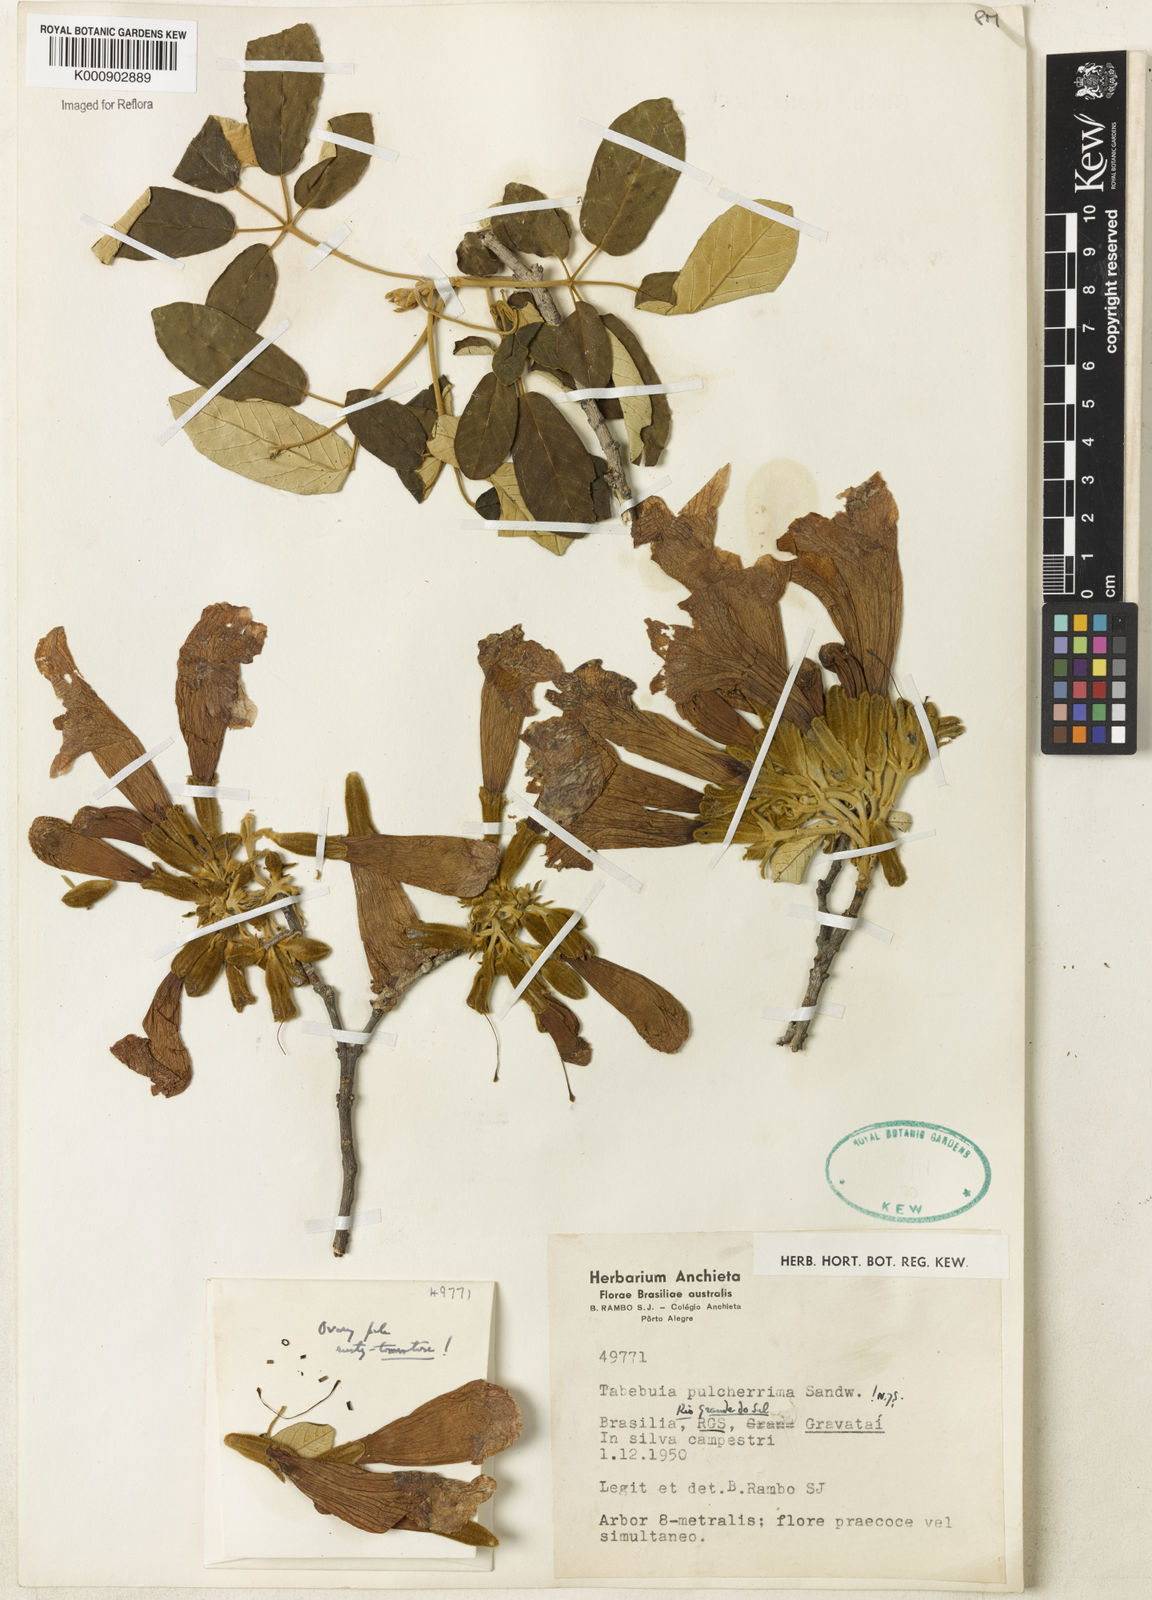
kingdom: Plantae
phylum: Tracheophyta
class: Magnoliopsida
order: Lamiales
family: Bignoniaceae
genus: Handroanthus
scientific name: Handroanthus pulcherrimus
